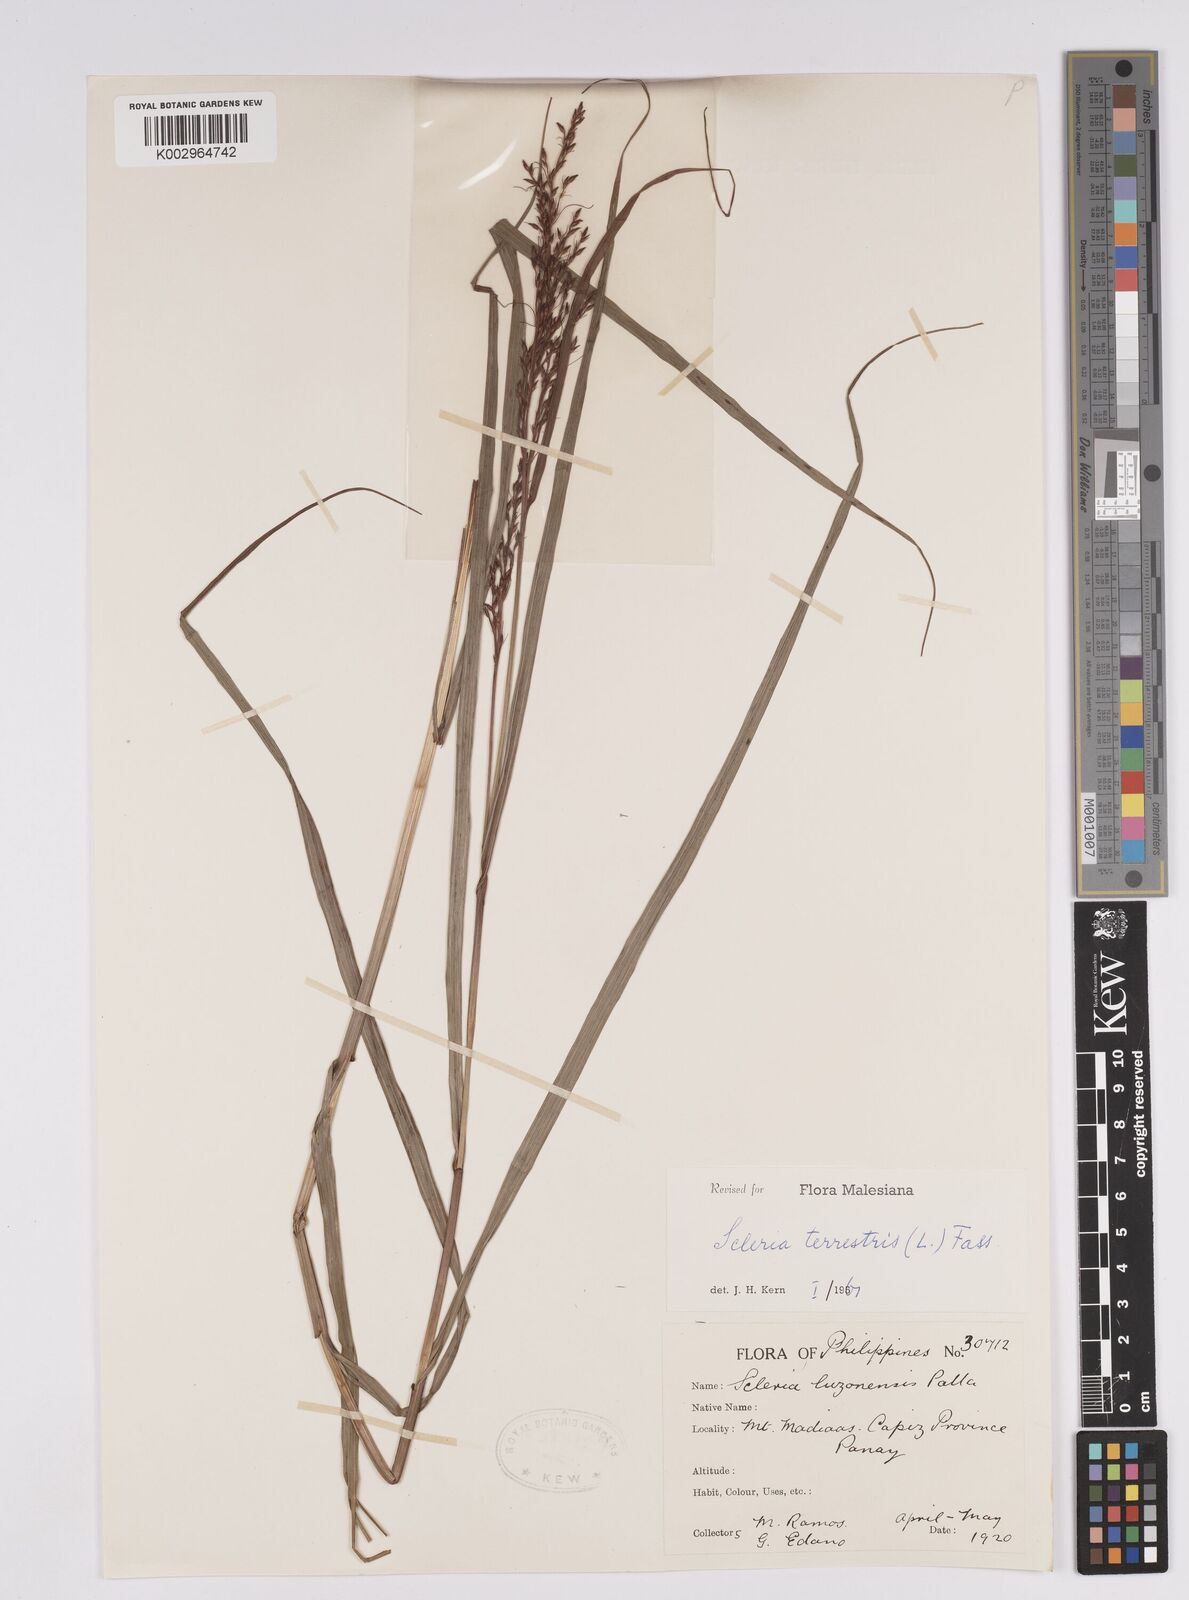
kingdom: Plantae
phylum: Tracheophyta
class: Liliopsida
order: Poales
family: Cyperaceae
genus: Scleria
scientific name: Scleria terrestris
